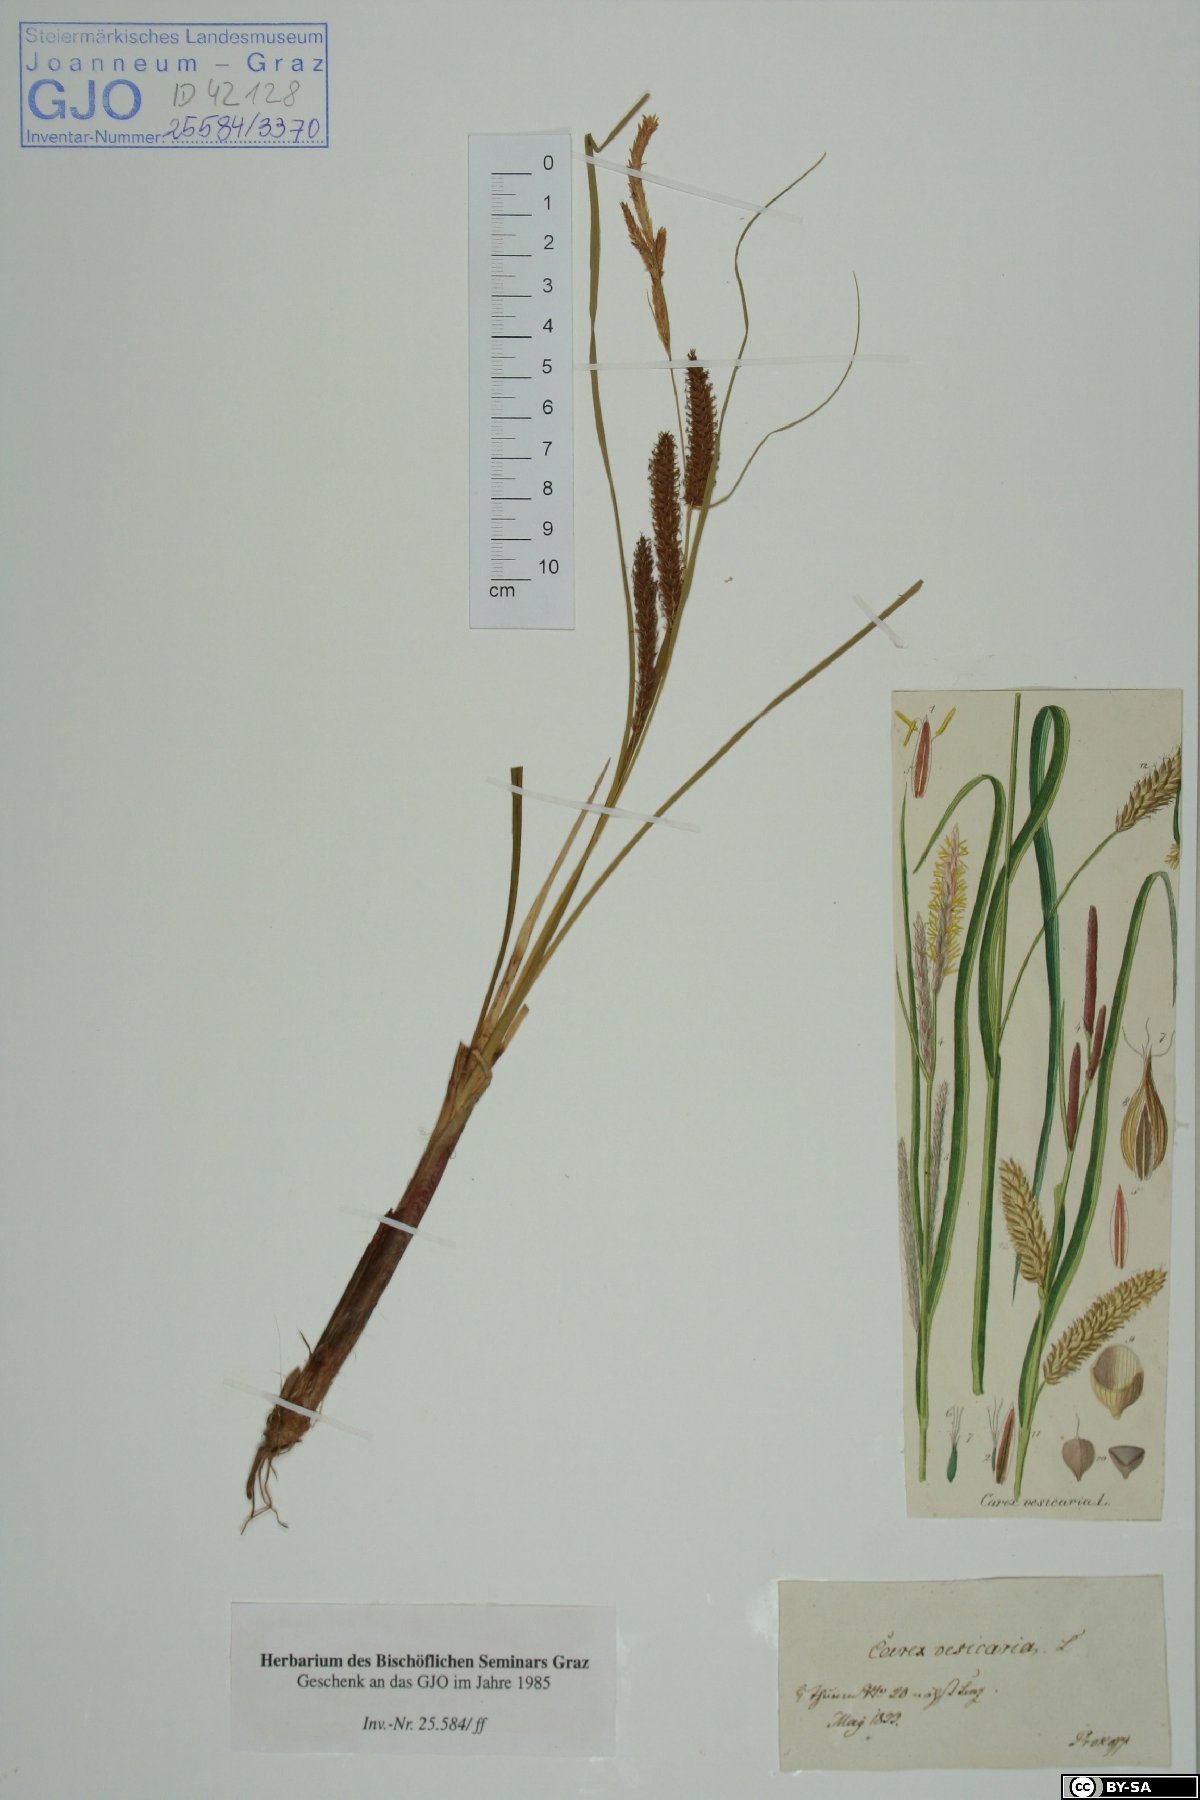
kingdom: Plantae
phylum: Tracheophyta
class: Liliopsida
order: Poales
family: Cyperaceae
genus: Carex
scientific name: Carex vesicaria
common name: Bladder-sedge
